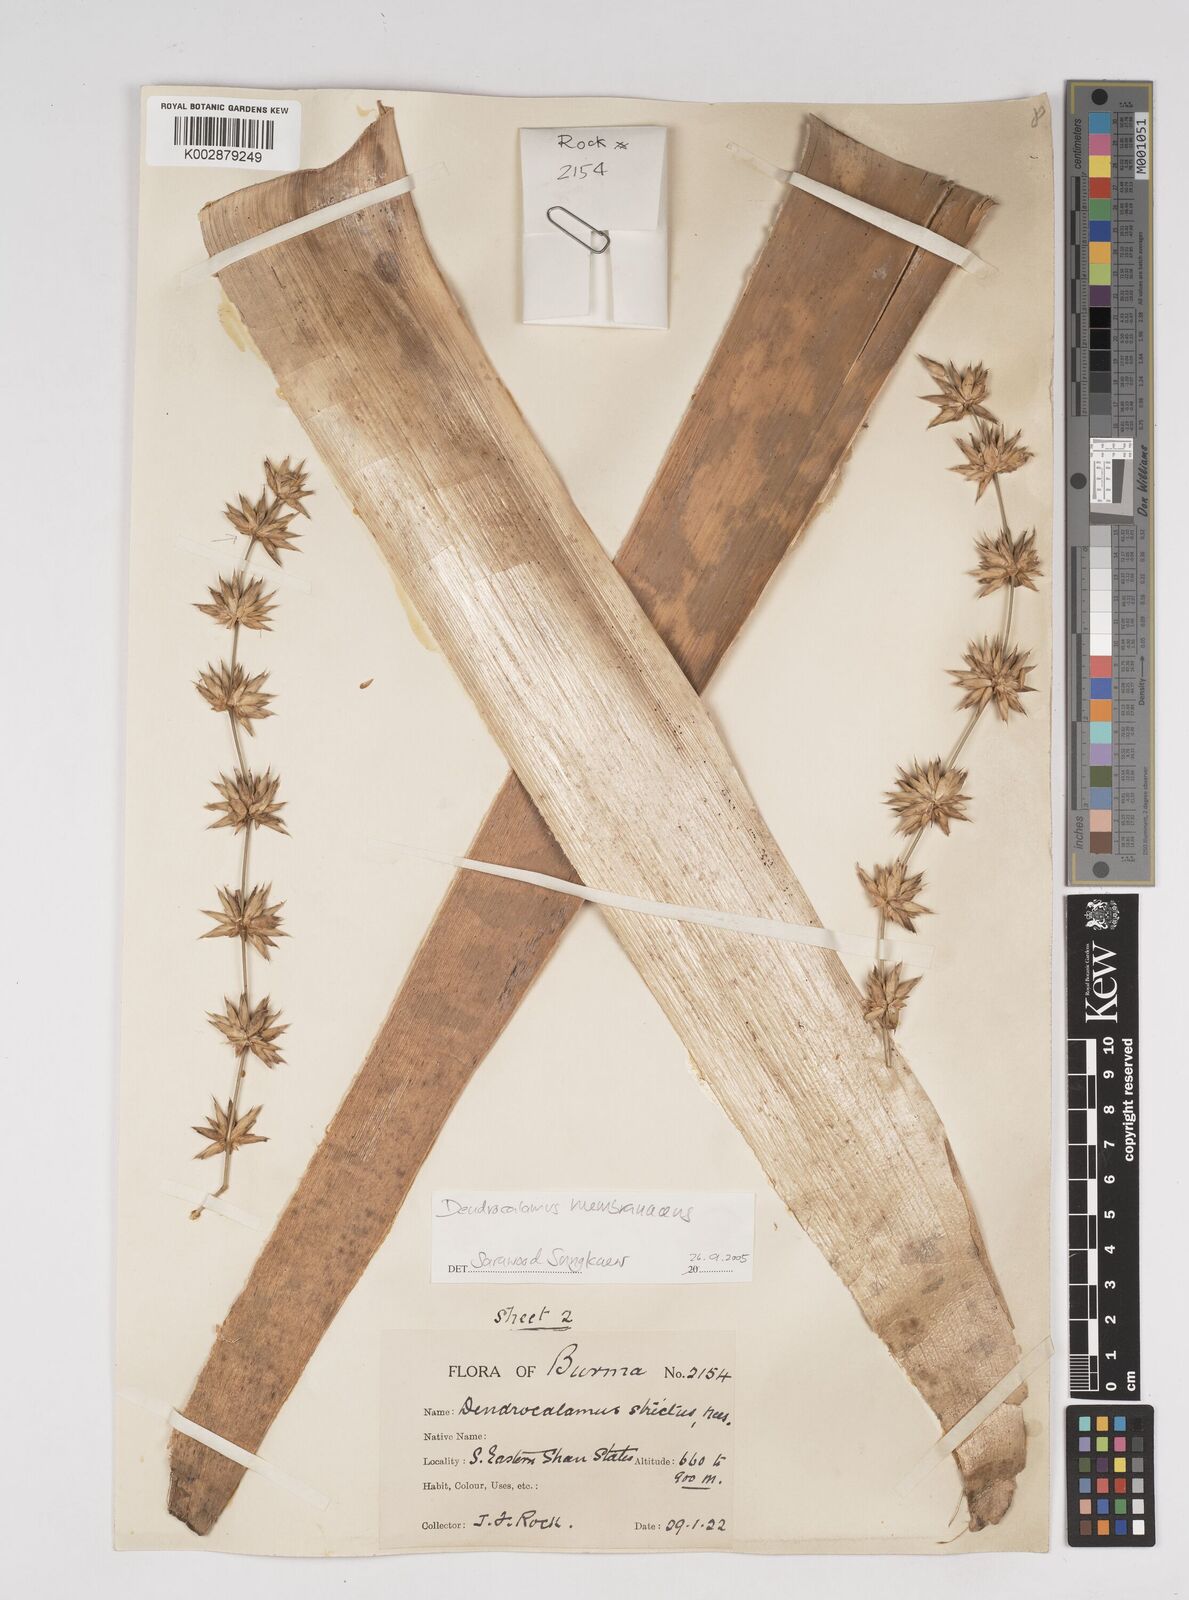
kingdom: Plantae
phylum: Tracheophyta
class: Liliopsida
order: Poales
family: Poaceae
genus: Dendrocalamus
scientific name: Dendrocalamus strictus
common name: Male bamboo
